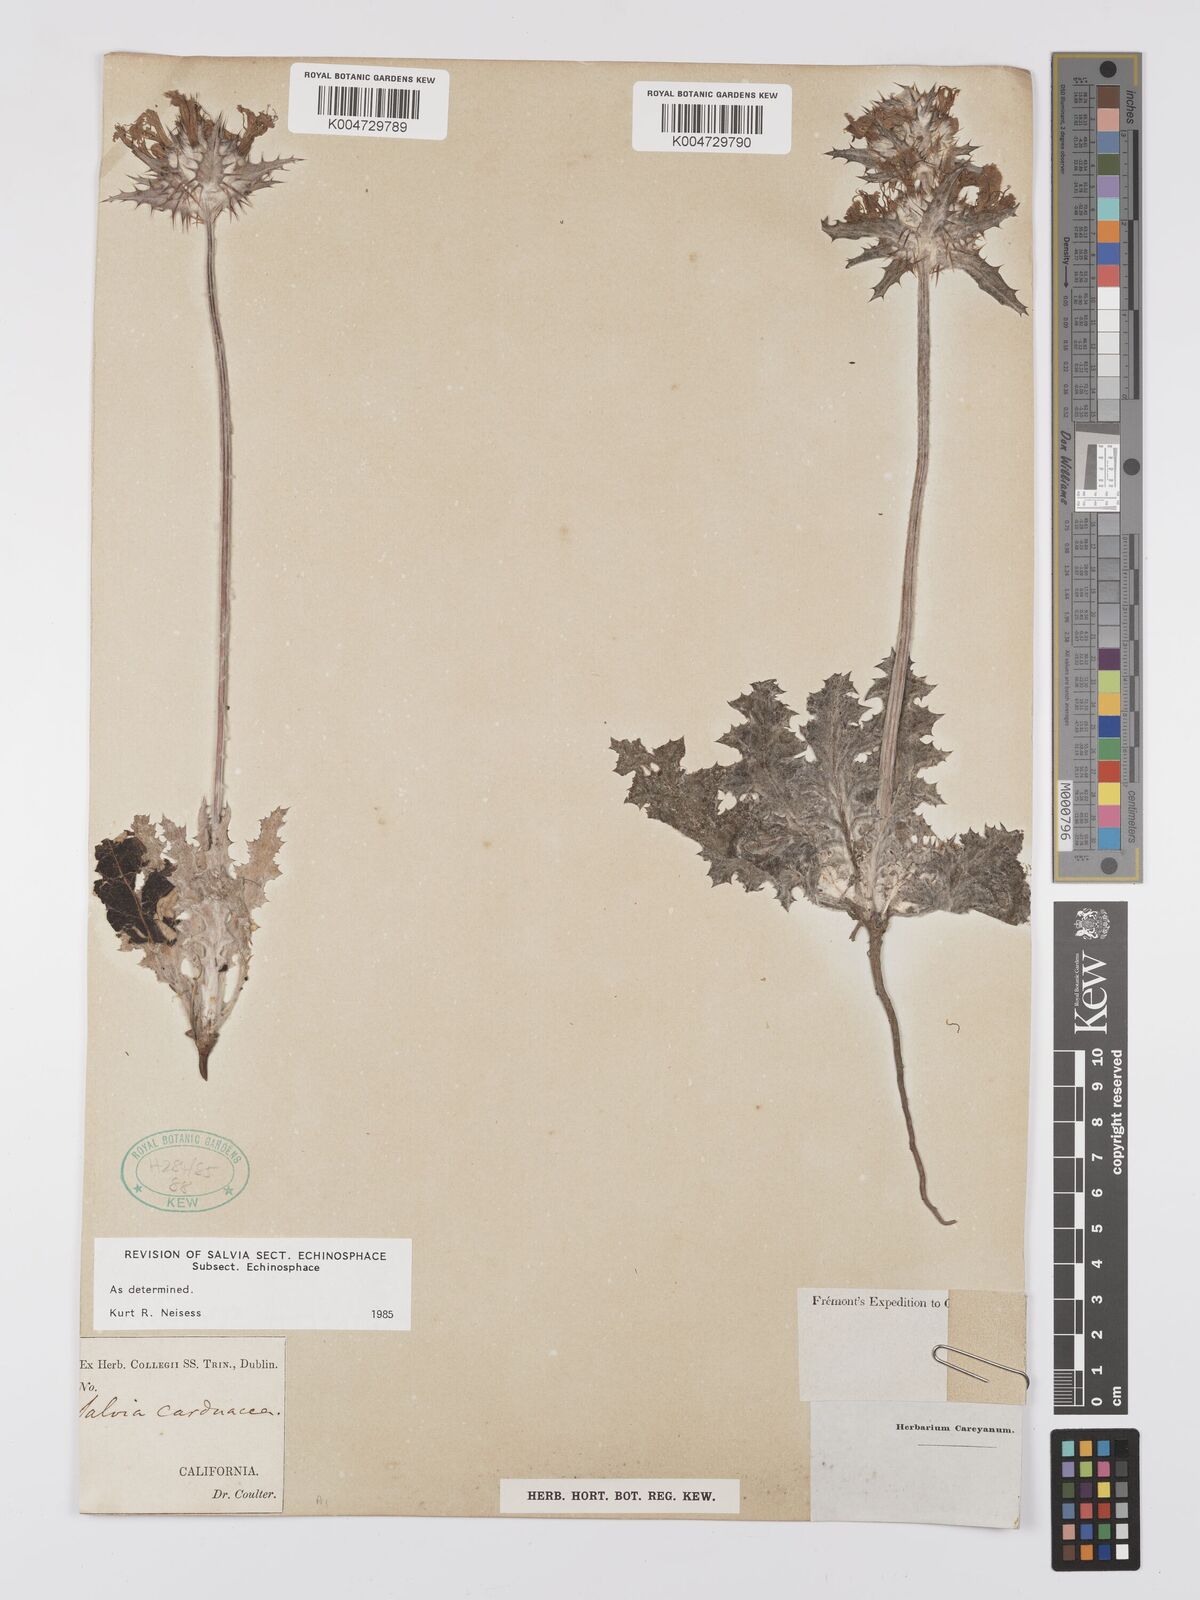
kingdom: Plantae
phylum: Tracheophyta
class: Magnoliopsida
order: Lamiales
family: Lamiaceae
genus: Salvia
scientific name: Salvia carduacea
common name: Thistle sage
